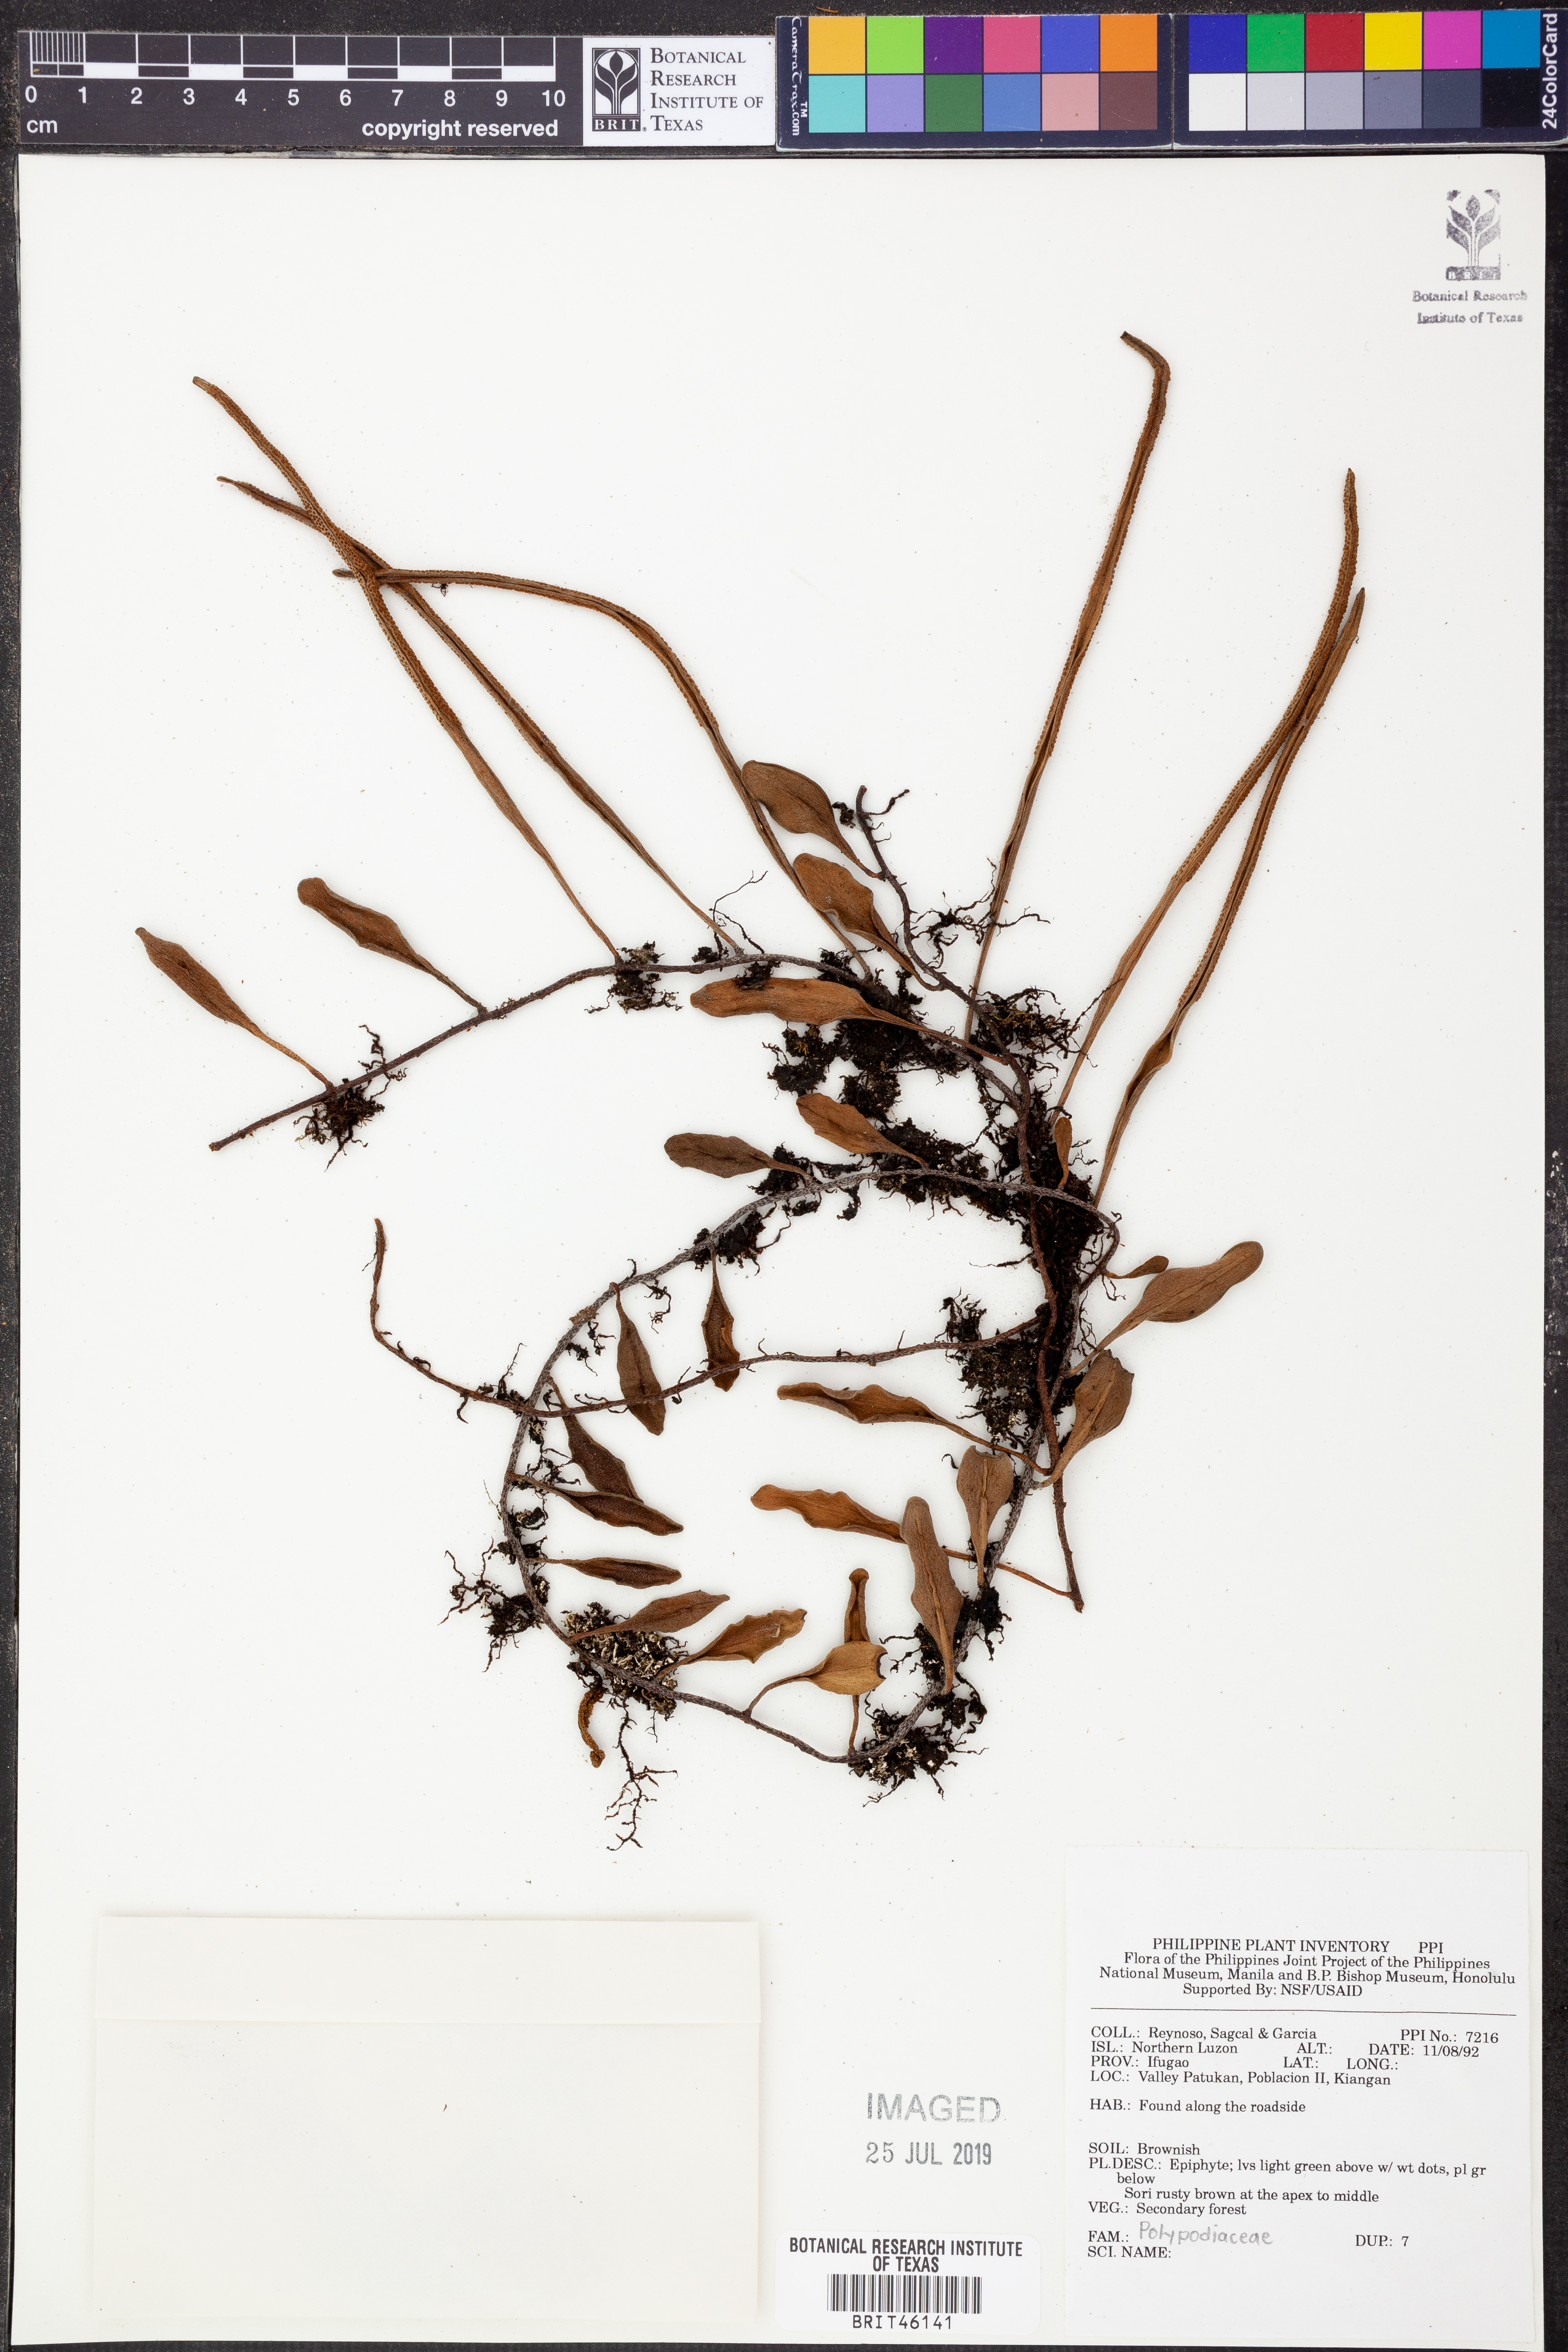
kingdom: Plantae
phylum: Tracheophyta
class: Polypodiopsida
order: Polypodiales
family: Polypodiaceae
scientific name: Polypodiaceae
